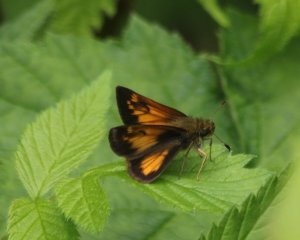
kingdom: Animalia
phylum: Arthropoda
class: Insecta
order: Lepidoptera
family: Hesperiidae
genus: Lon
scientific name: Lon hobomok
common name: Hobomok Skipper
